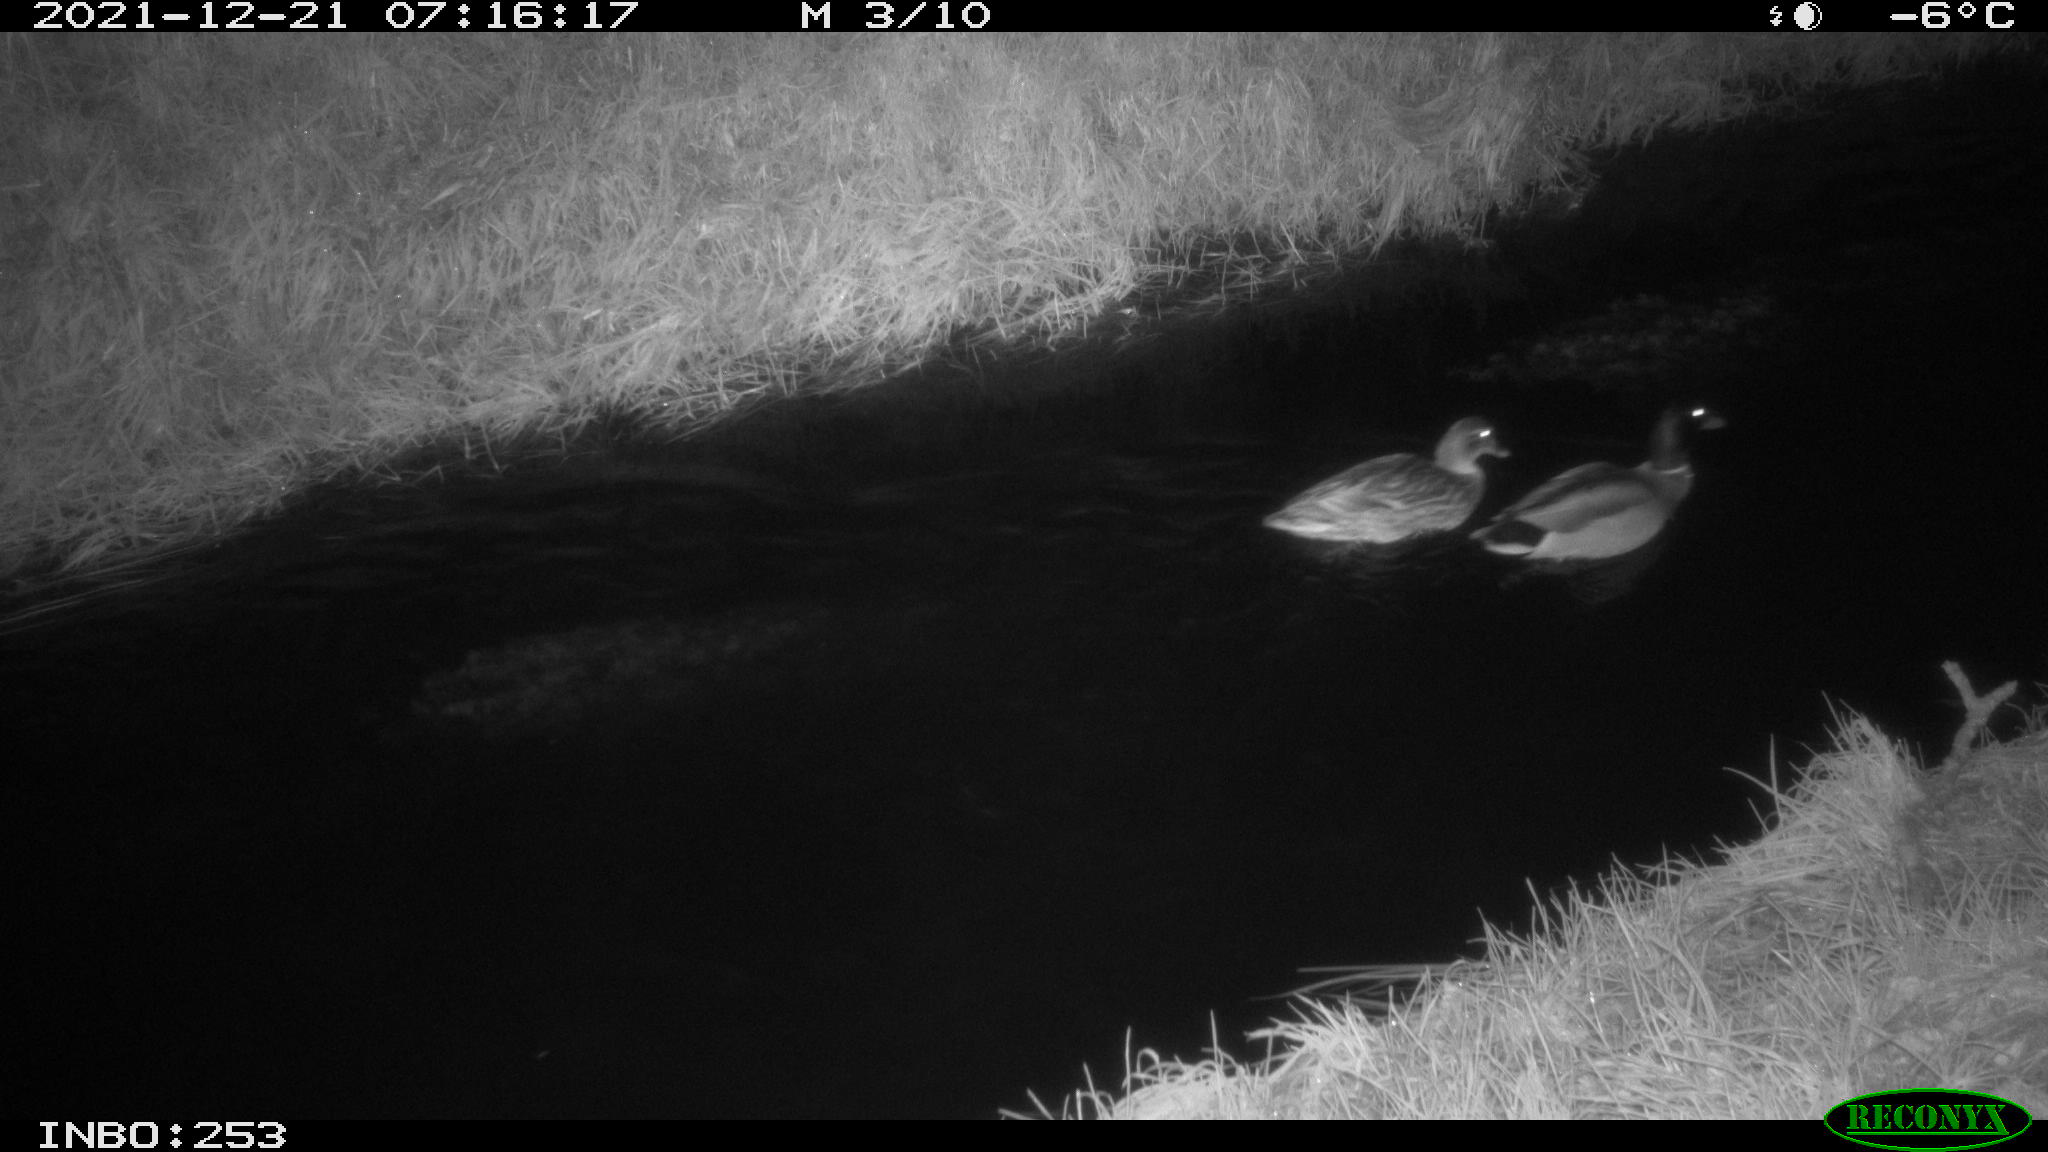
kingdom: Animalia
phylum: Chordata
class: Aves
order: Anseriformes
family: Anatidae
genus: Anas
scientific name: Anas platyrhynchos
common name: Mallard
